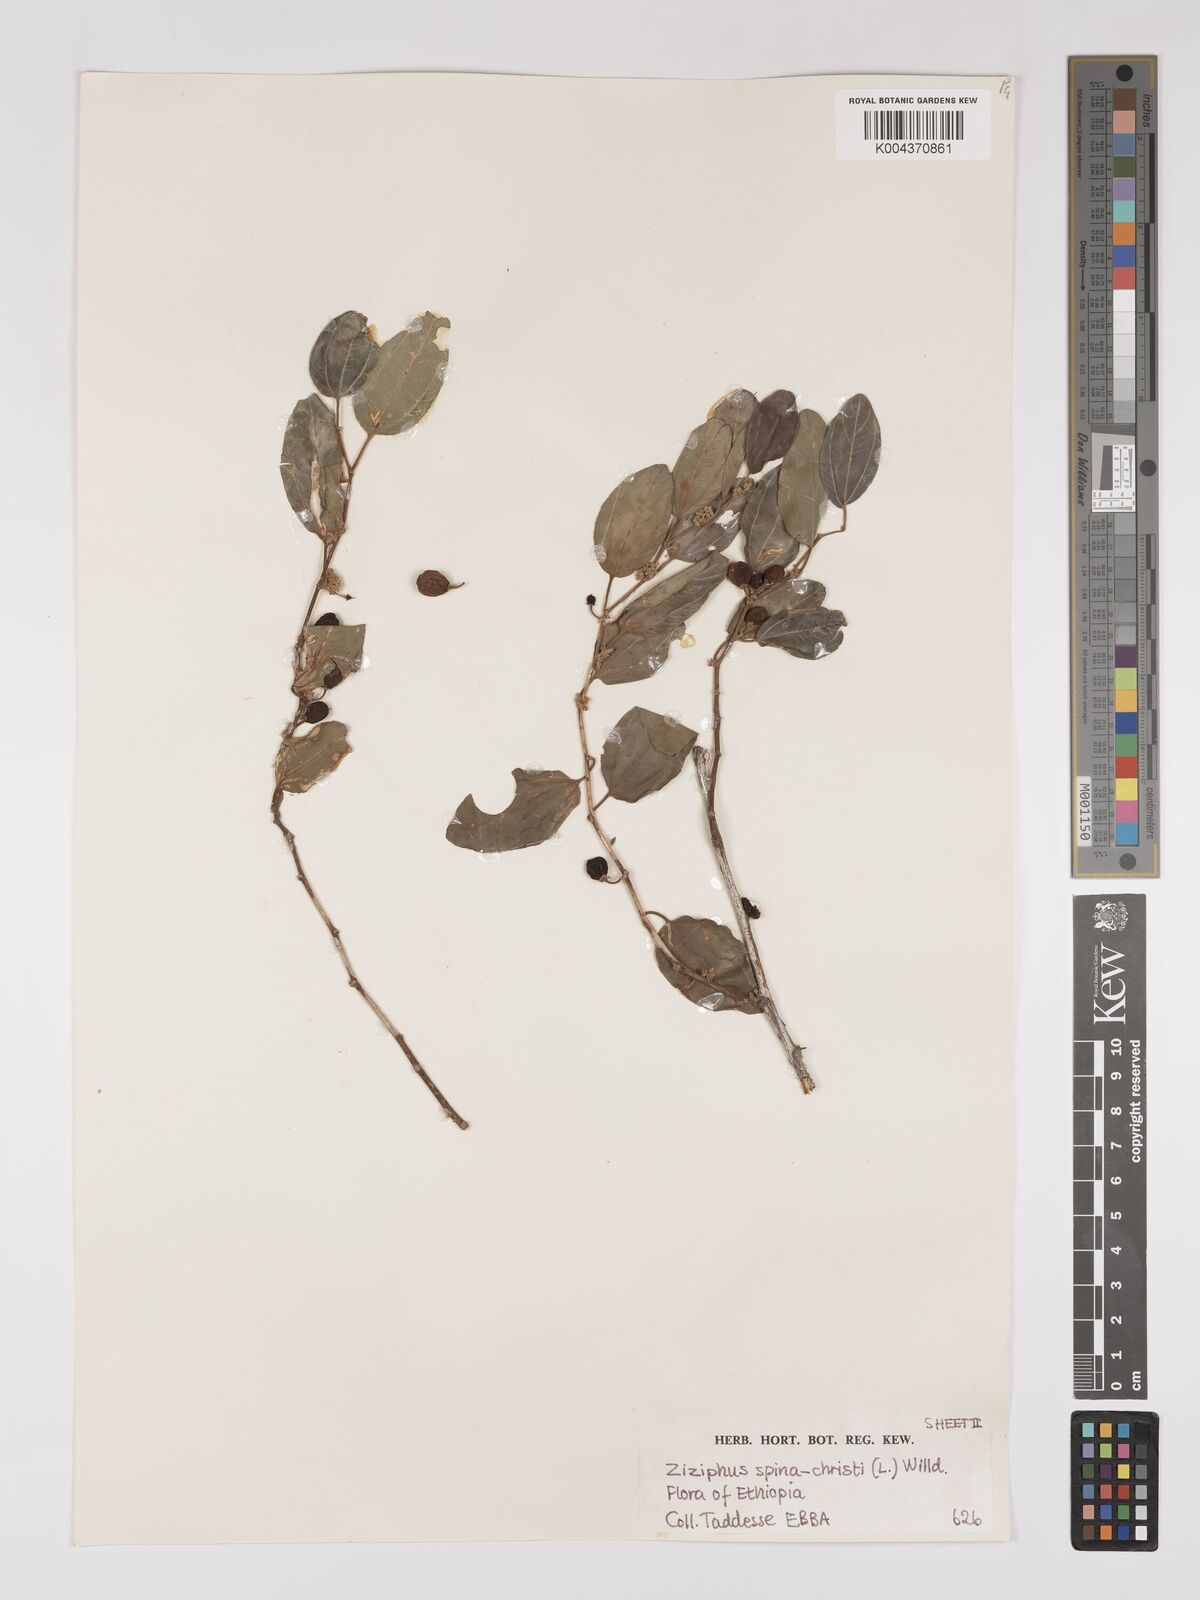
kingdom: Plantae
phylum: Tracheophyta
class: Magnoliopsida
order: Rosales
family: Rhamnaceae
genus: Ziziphus
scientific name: Ziziphus spina-christi
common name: Syrian christ-thorn
